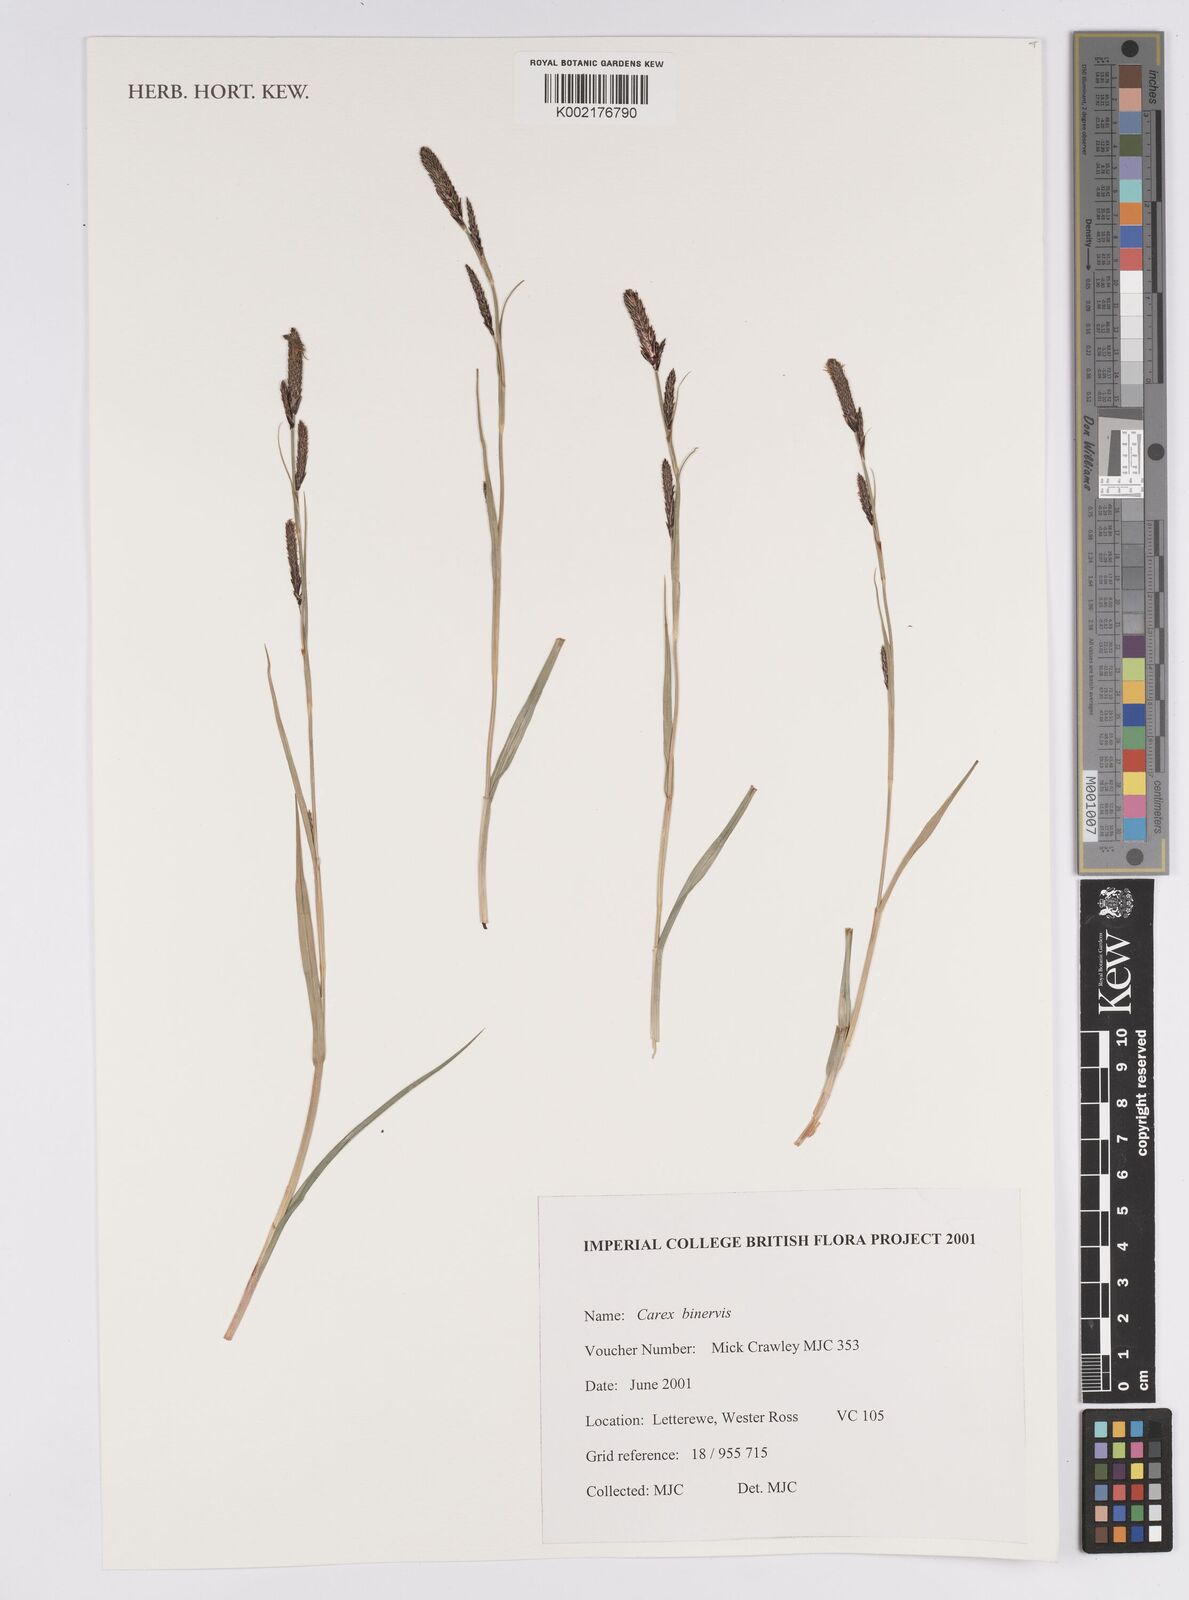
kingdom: Plantae
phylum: Tracheophyta
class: Liliopsida
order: Poales
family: Cyperaceae
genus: Carex
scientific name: Carex binervis
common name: Green-ribbed sedge
